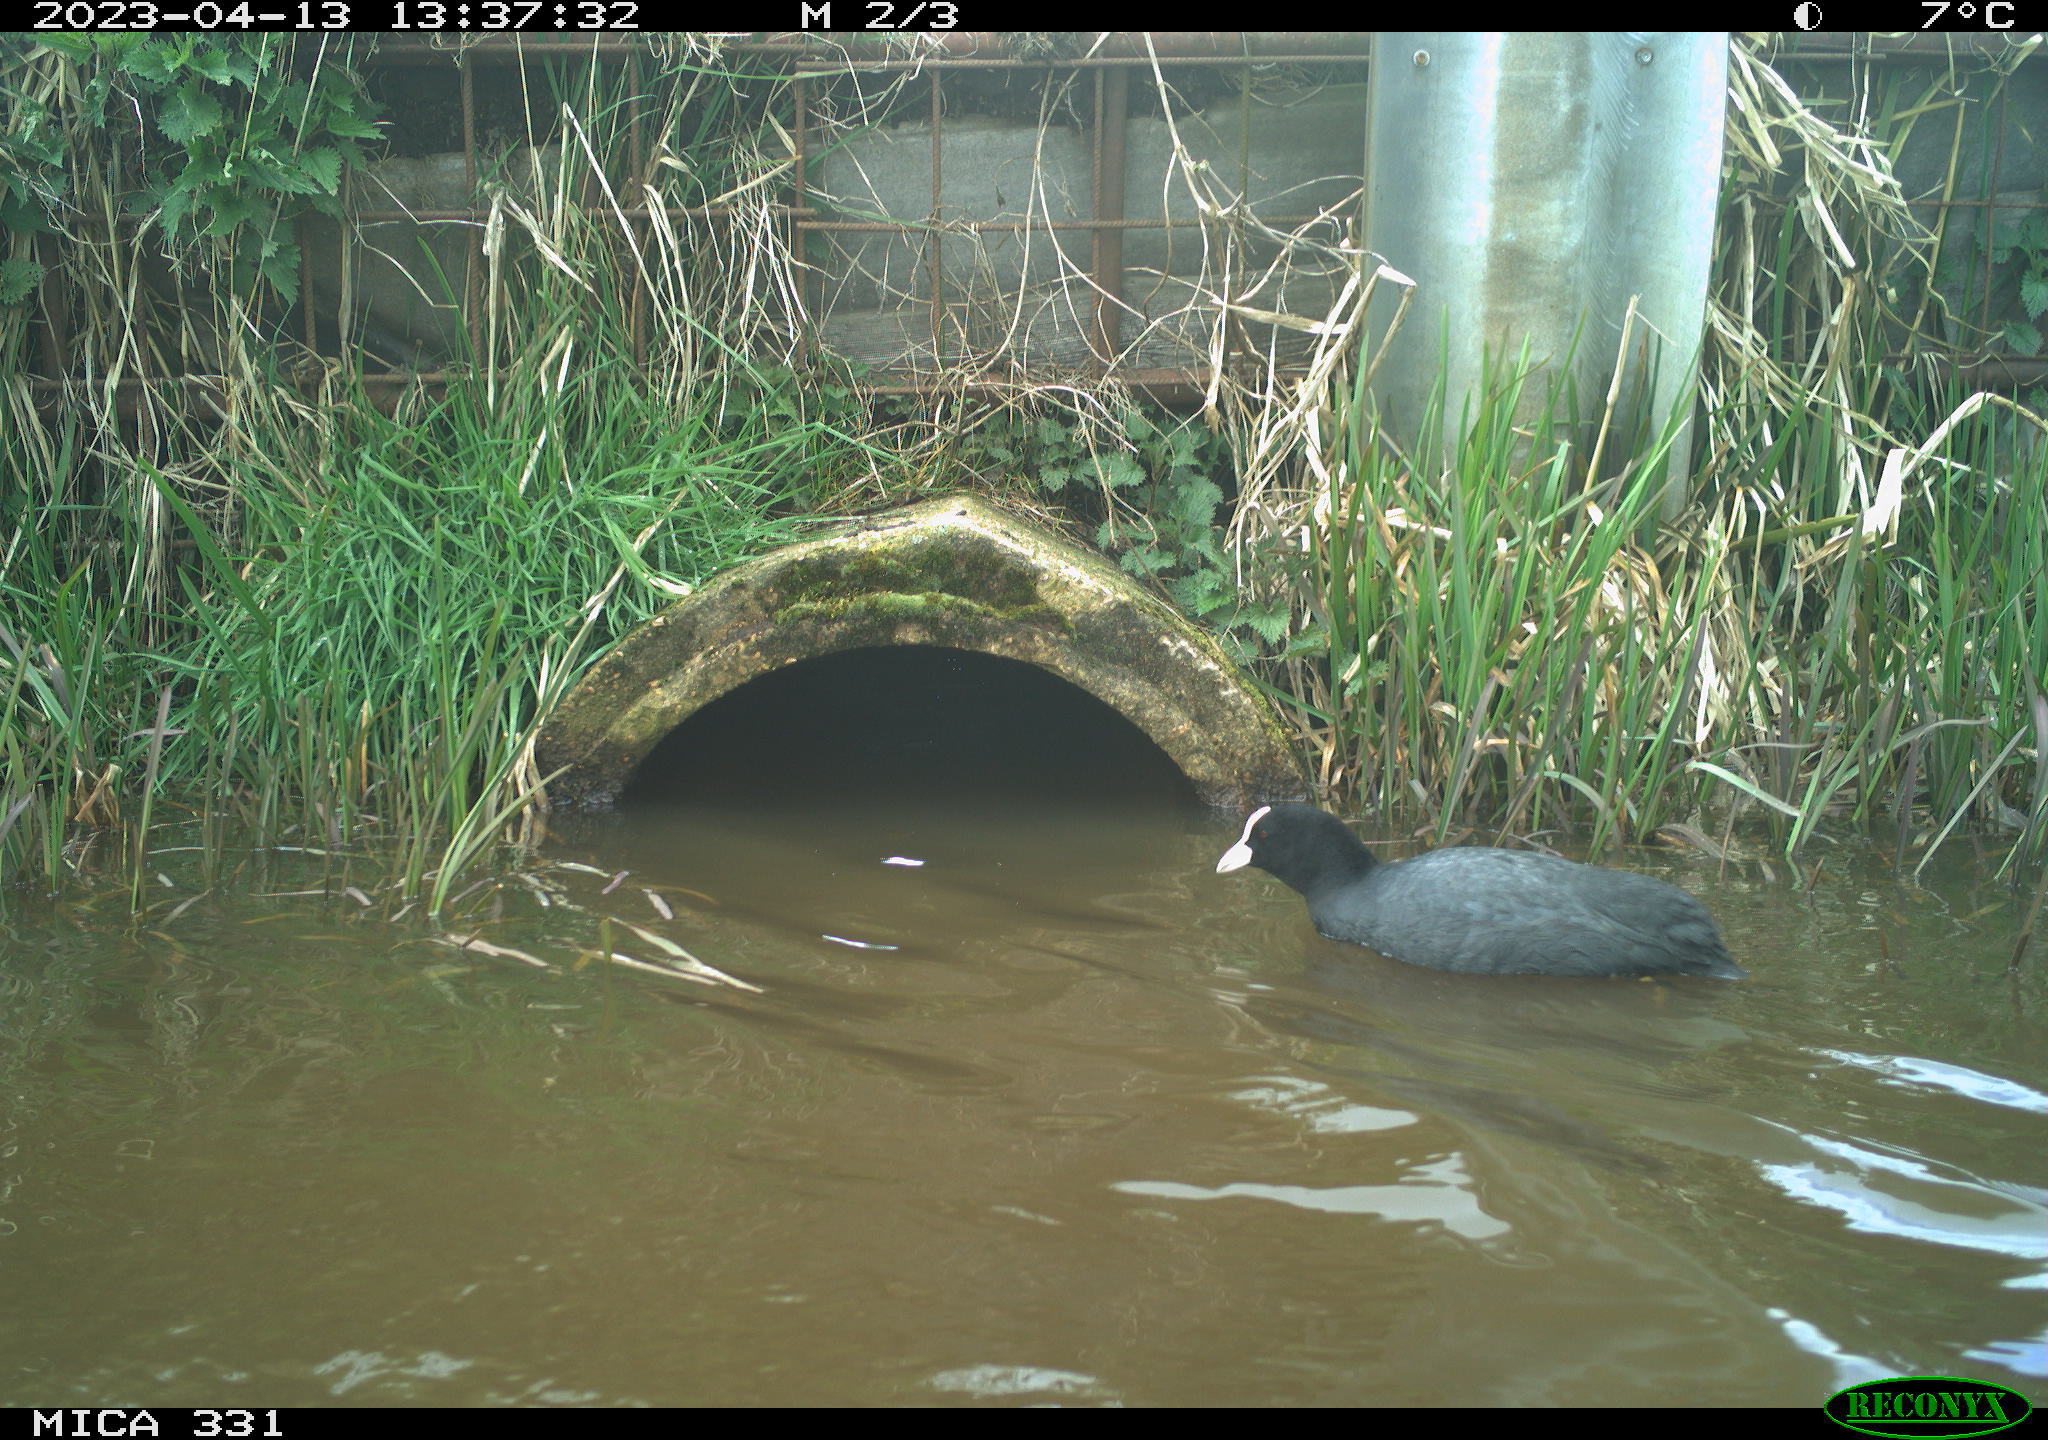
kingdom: Animalia
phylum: Chordata
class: Aves
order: Gruiformes
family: Rallidae
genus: Fulica
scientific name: Fulica atra
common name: Eurasian coot
